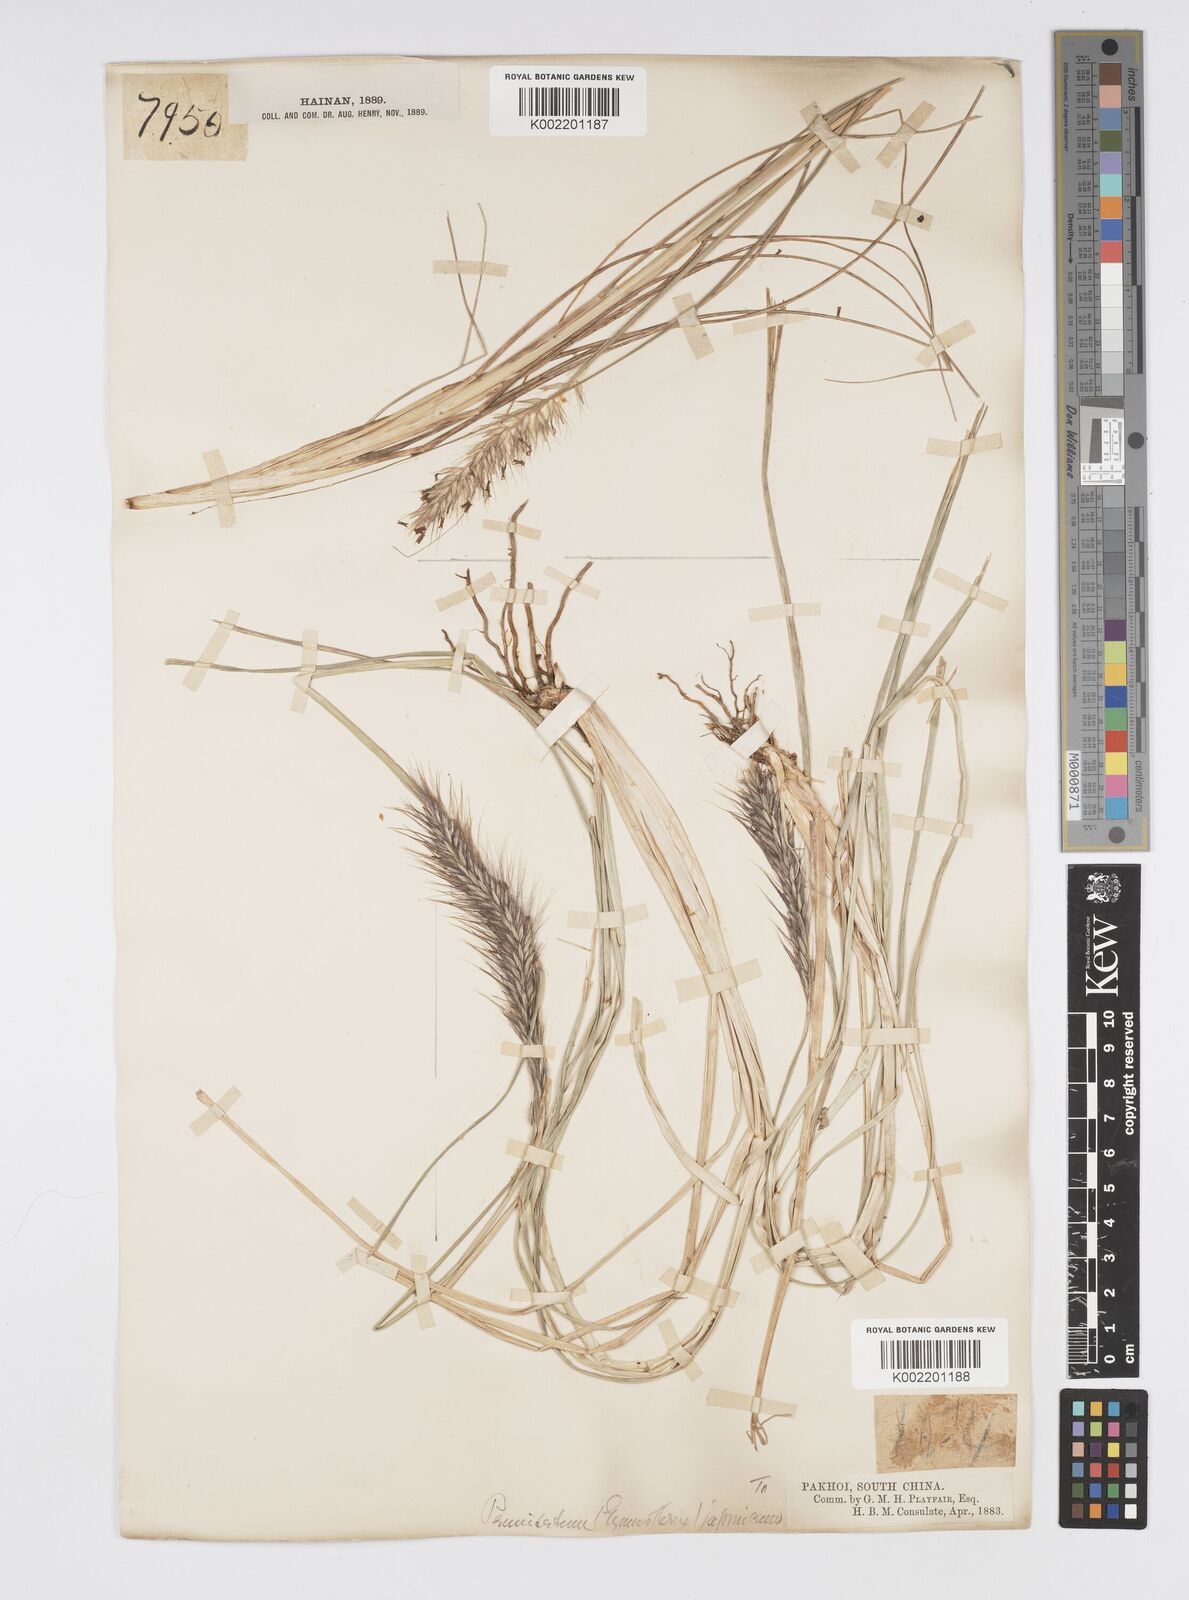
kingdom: Plantae
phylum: Tracheophyta
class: Liliopsida
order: Poales
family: Poaceae
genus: Cenchrus
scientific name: Cenchrus alopecuroides
